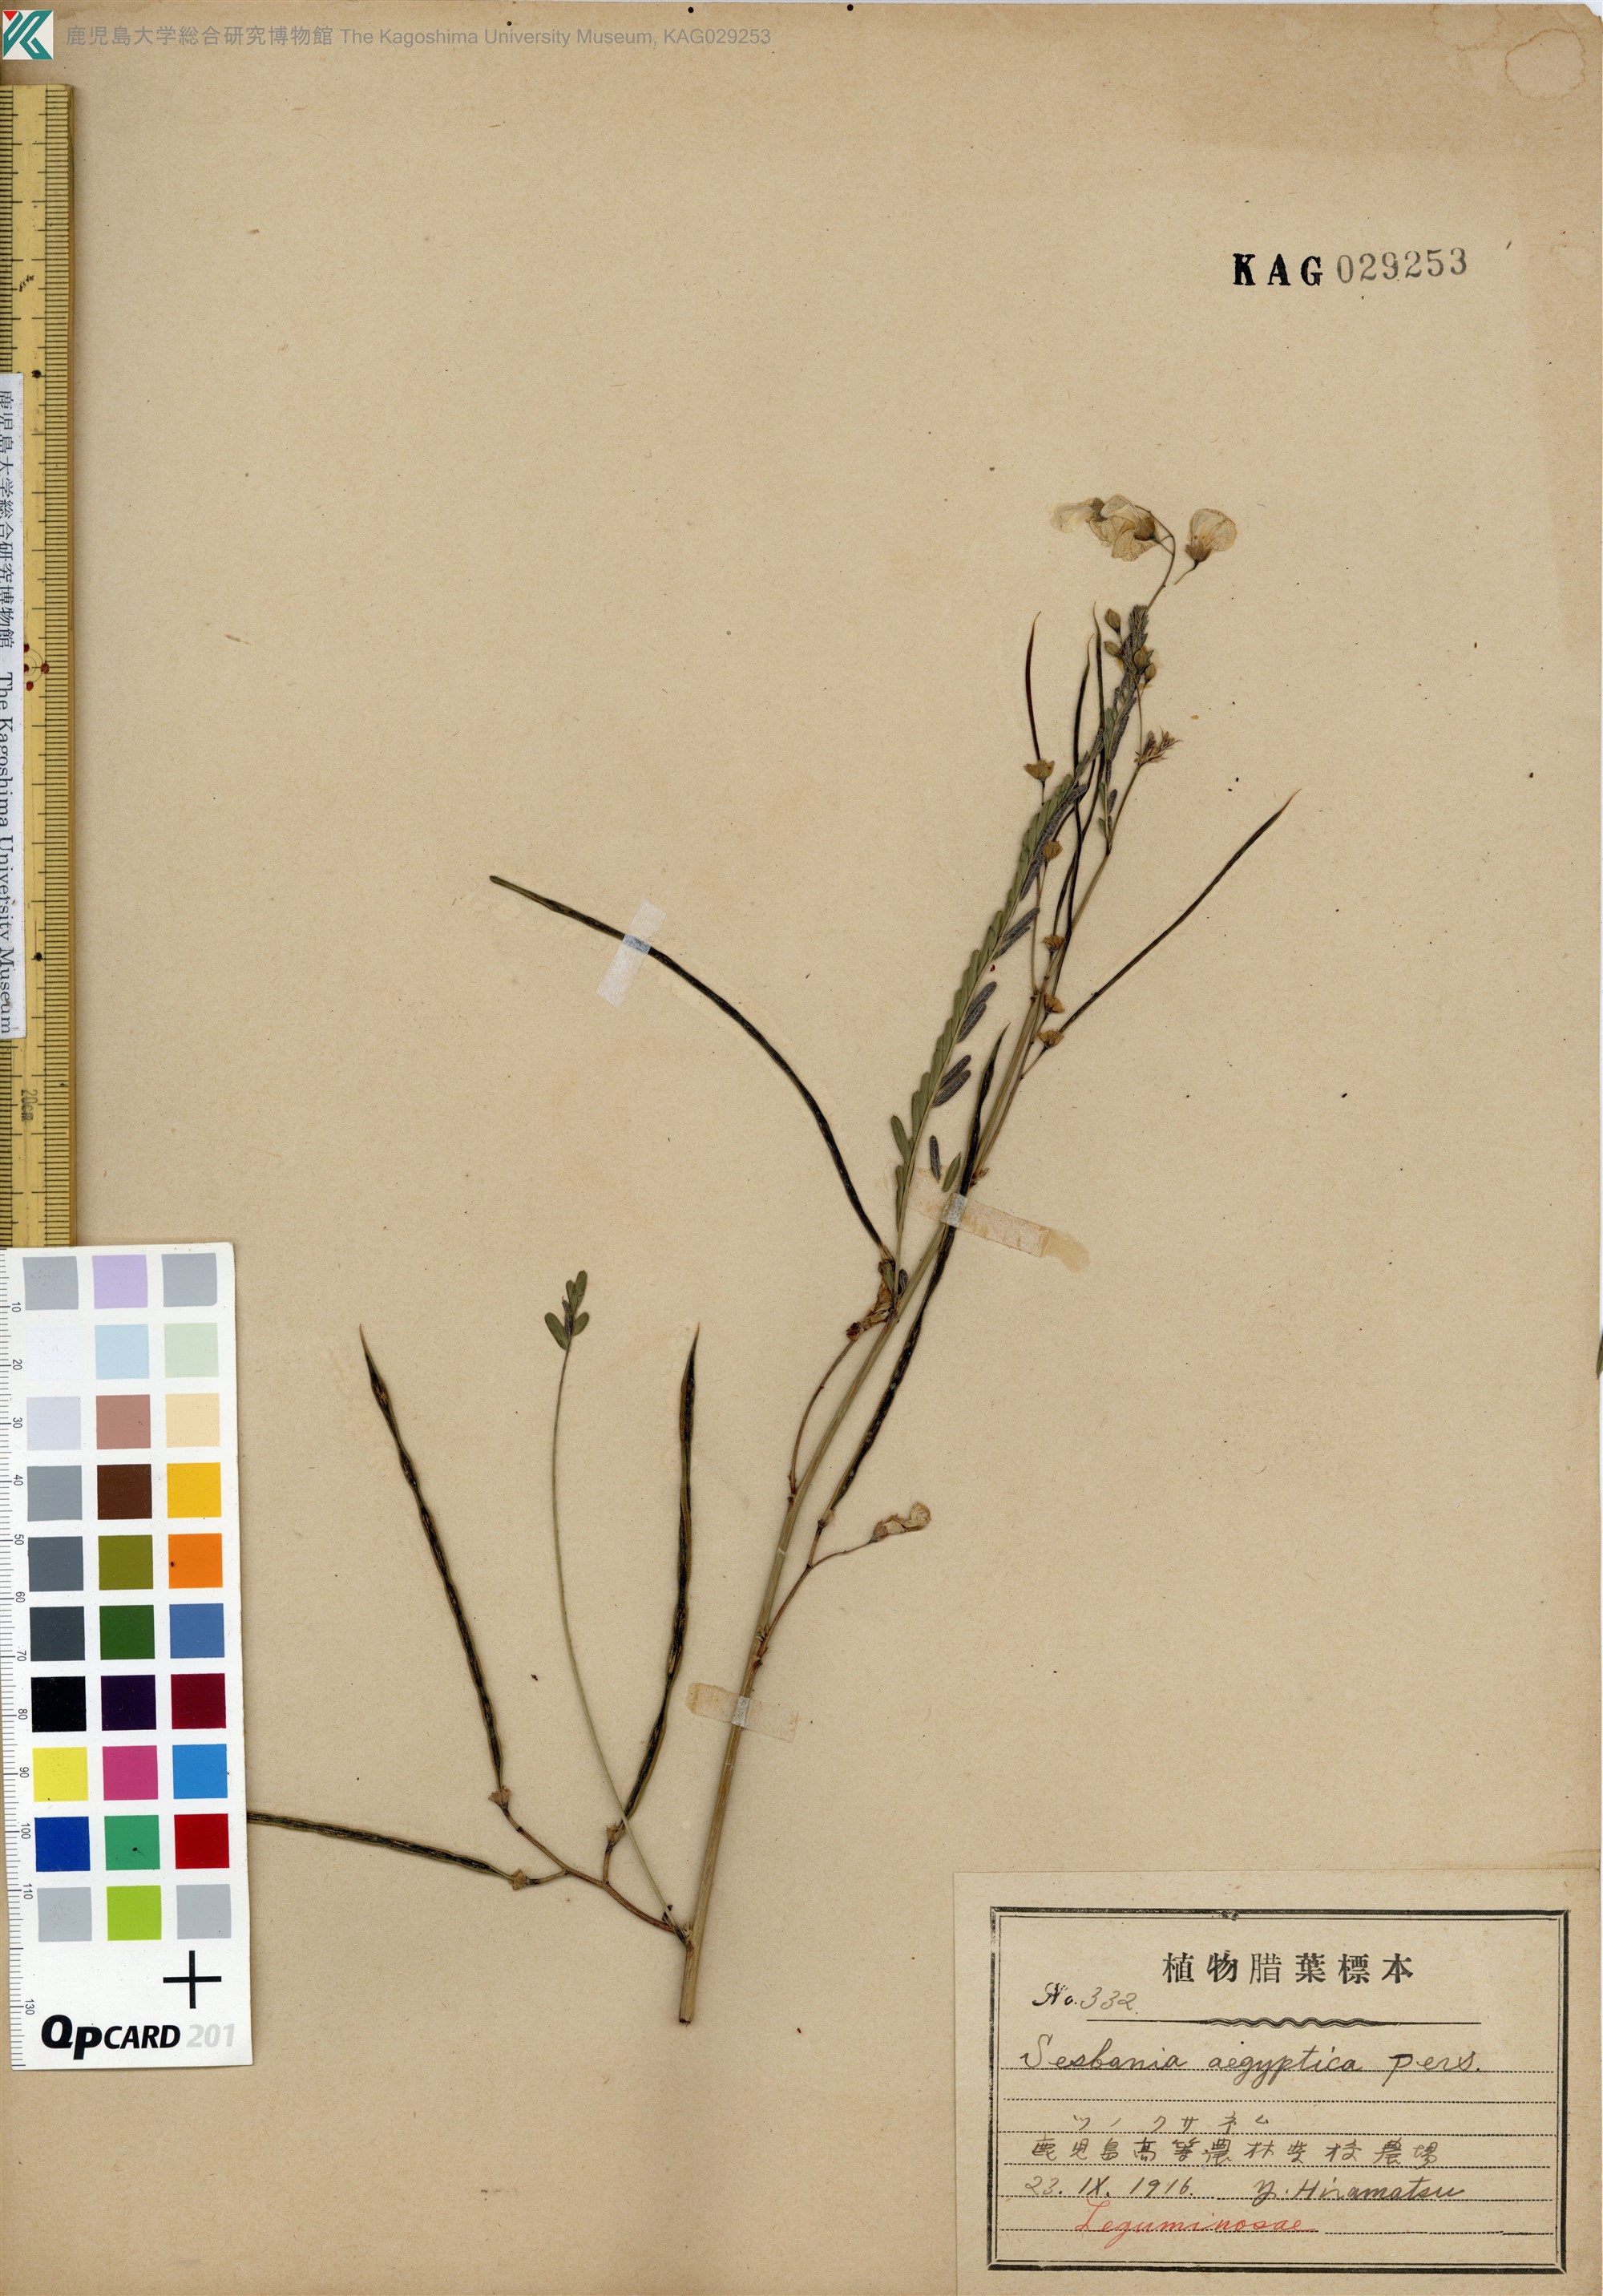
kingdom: Plantae
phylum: Tracheophyta
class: Magnoliopsida
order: Fabales
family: Fabaceae
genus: Sesbania
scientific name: Sesbania cannabina
